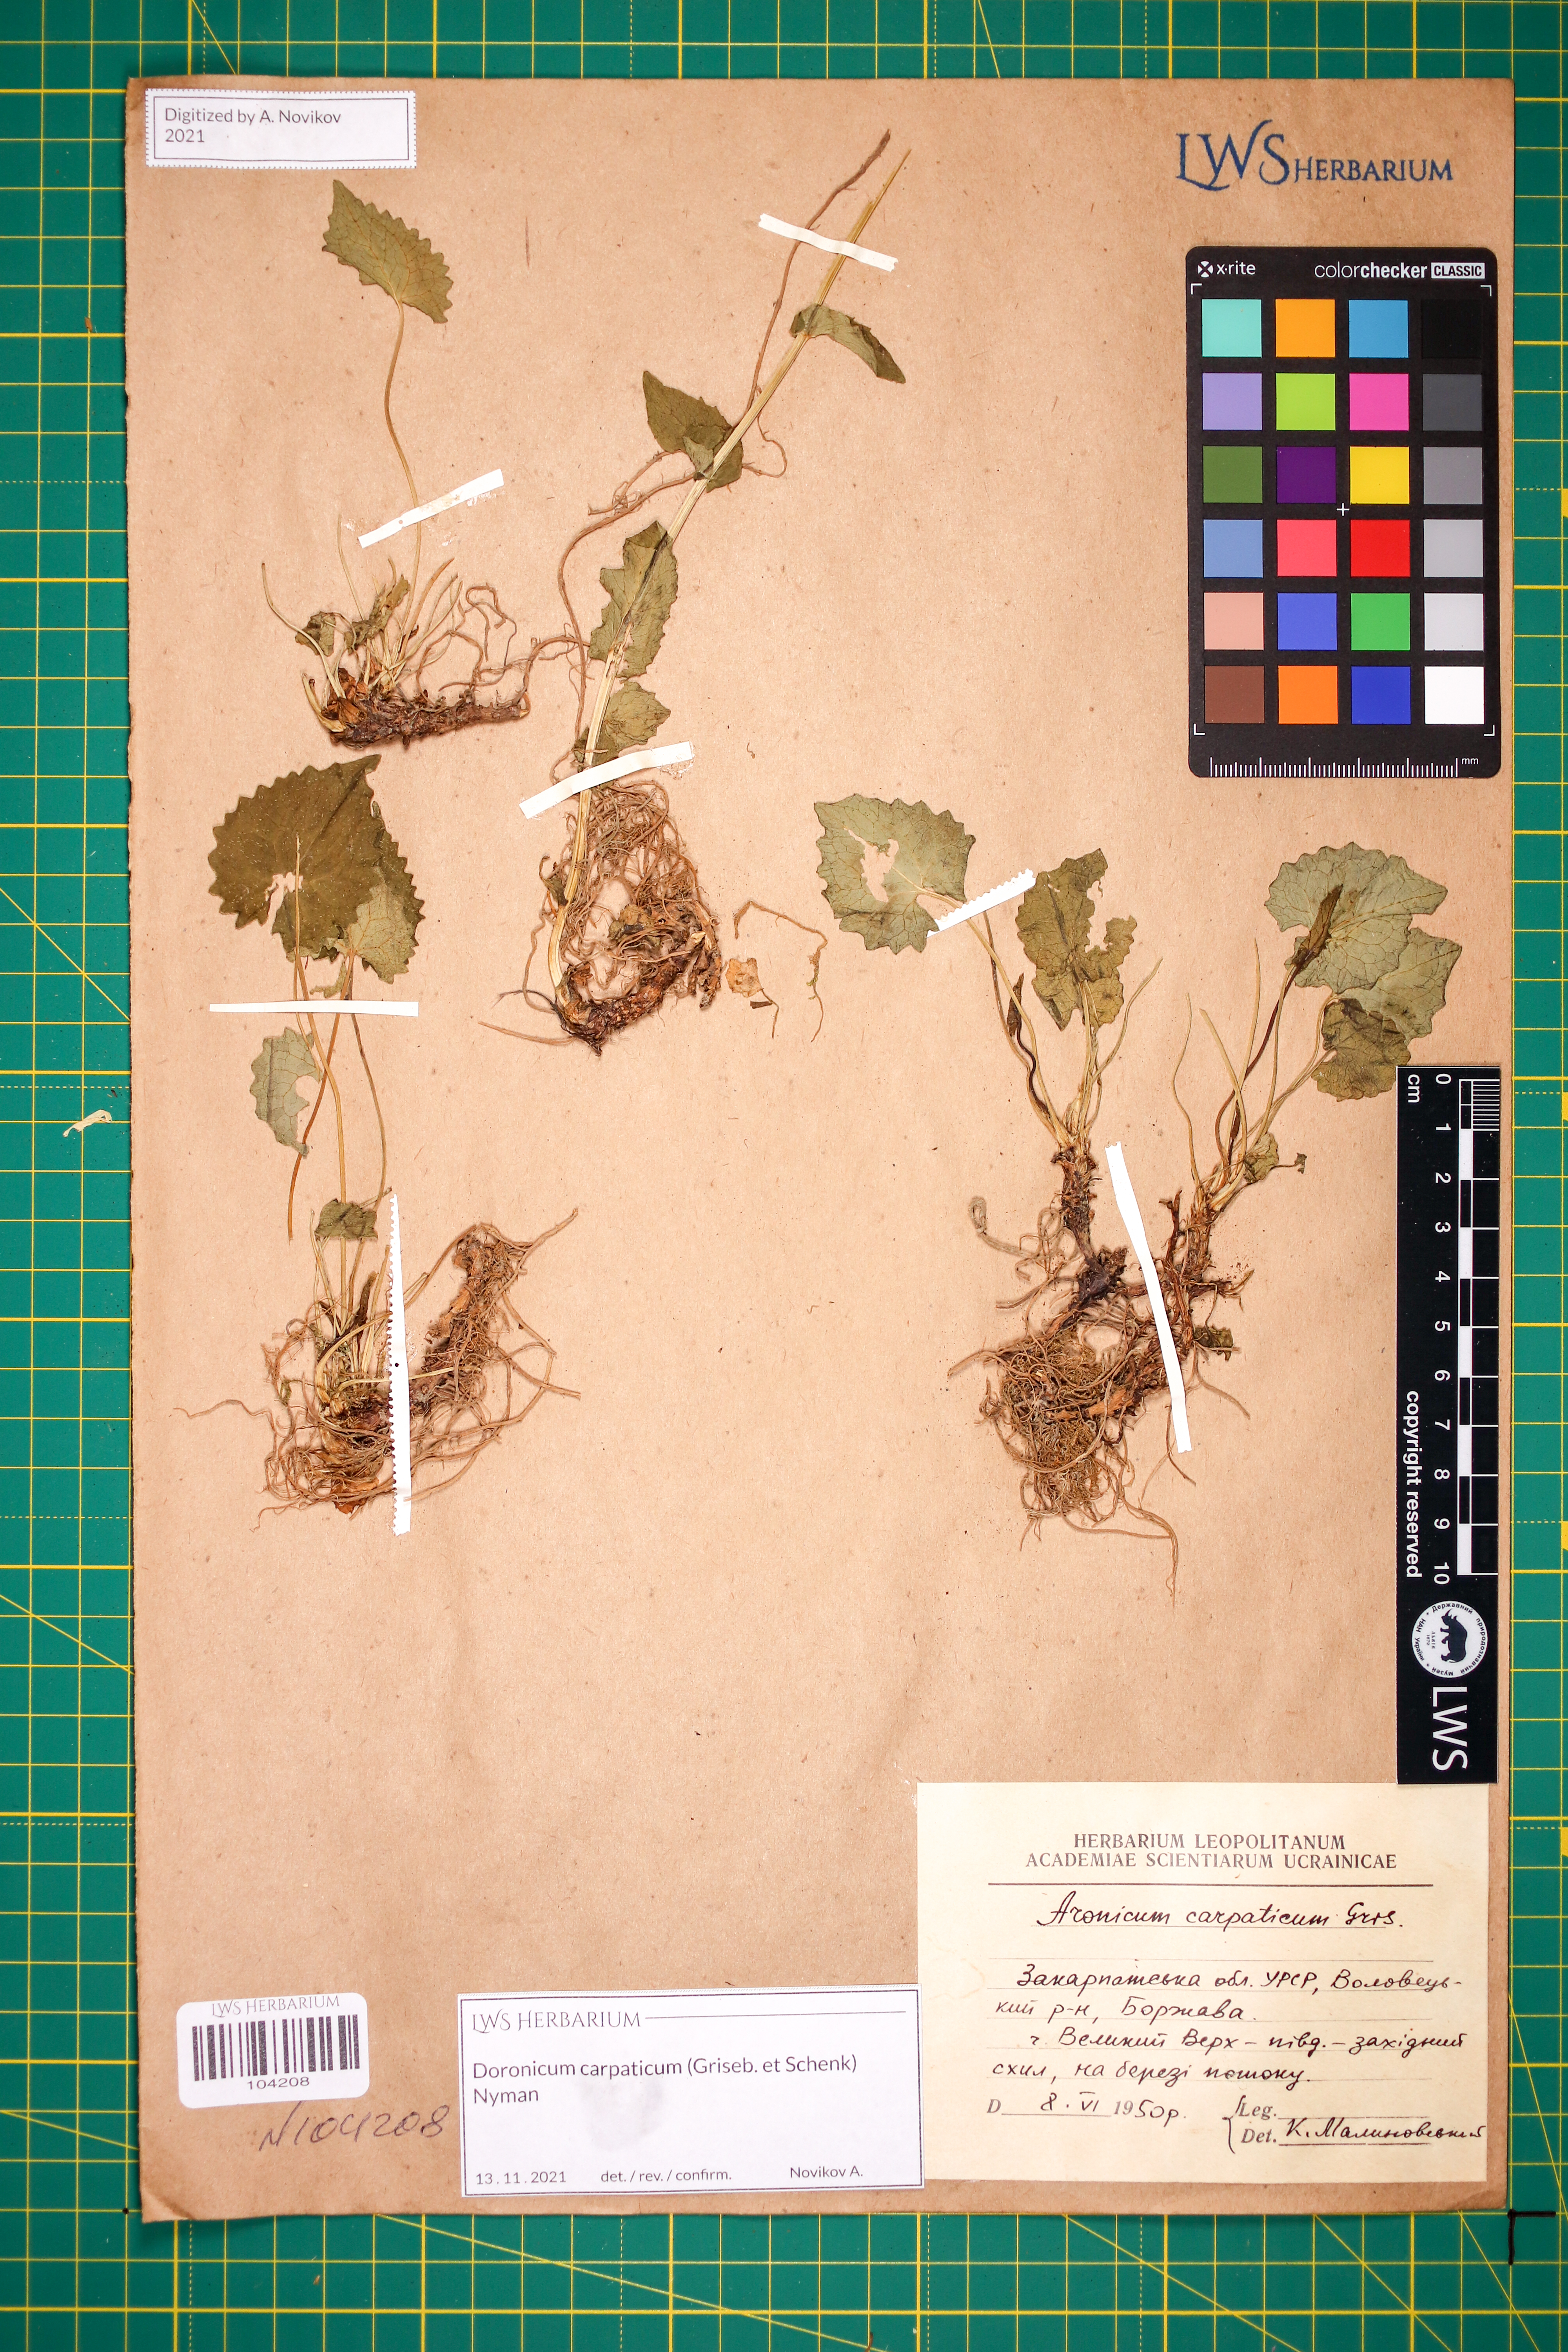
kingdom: Plantae
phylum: Tracheophyta
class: Magnoliopsida
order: Asterales
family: Asteraceae
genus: Doronicum
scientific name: Doronicum carpaticum
